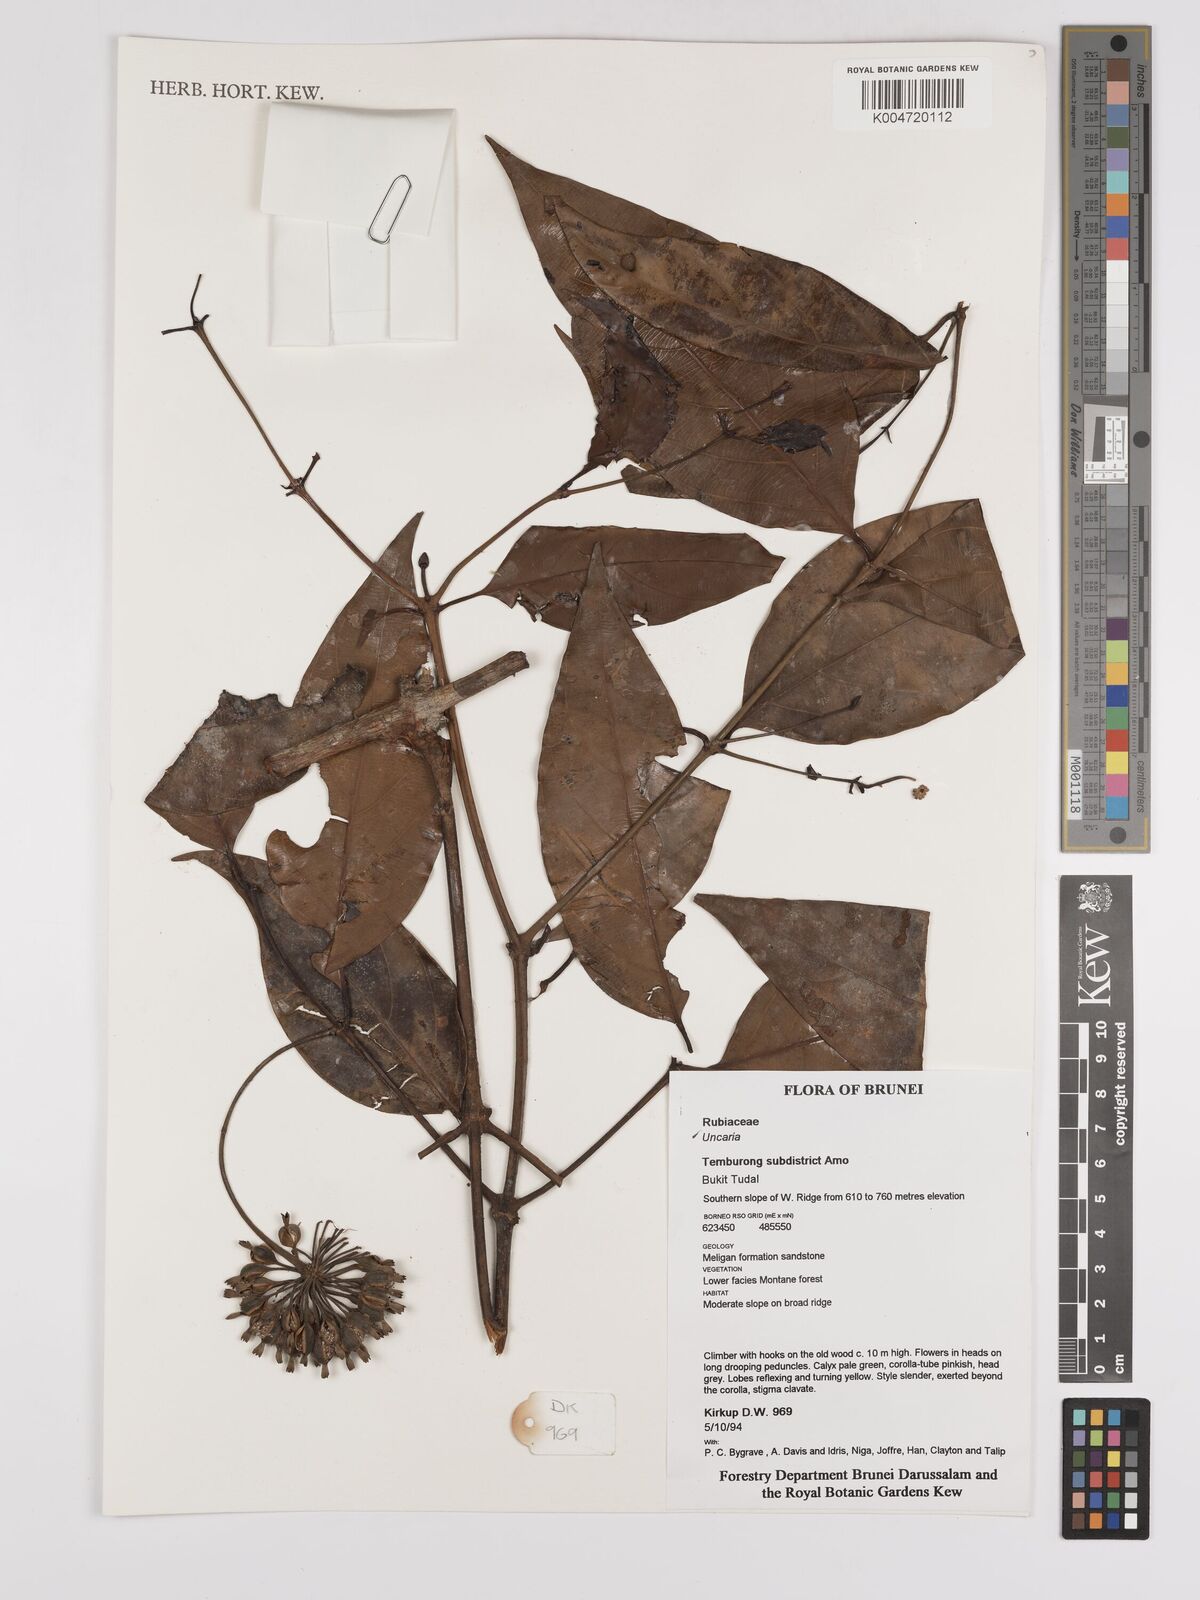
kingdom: Plantae
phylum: Tracheophyta
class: Magnoliopsida
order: Gentianales
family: Rubiaceae
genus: Uncaria
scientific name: Uncaria
